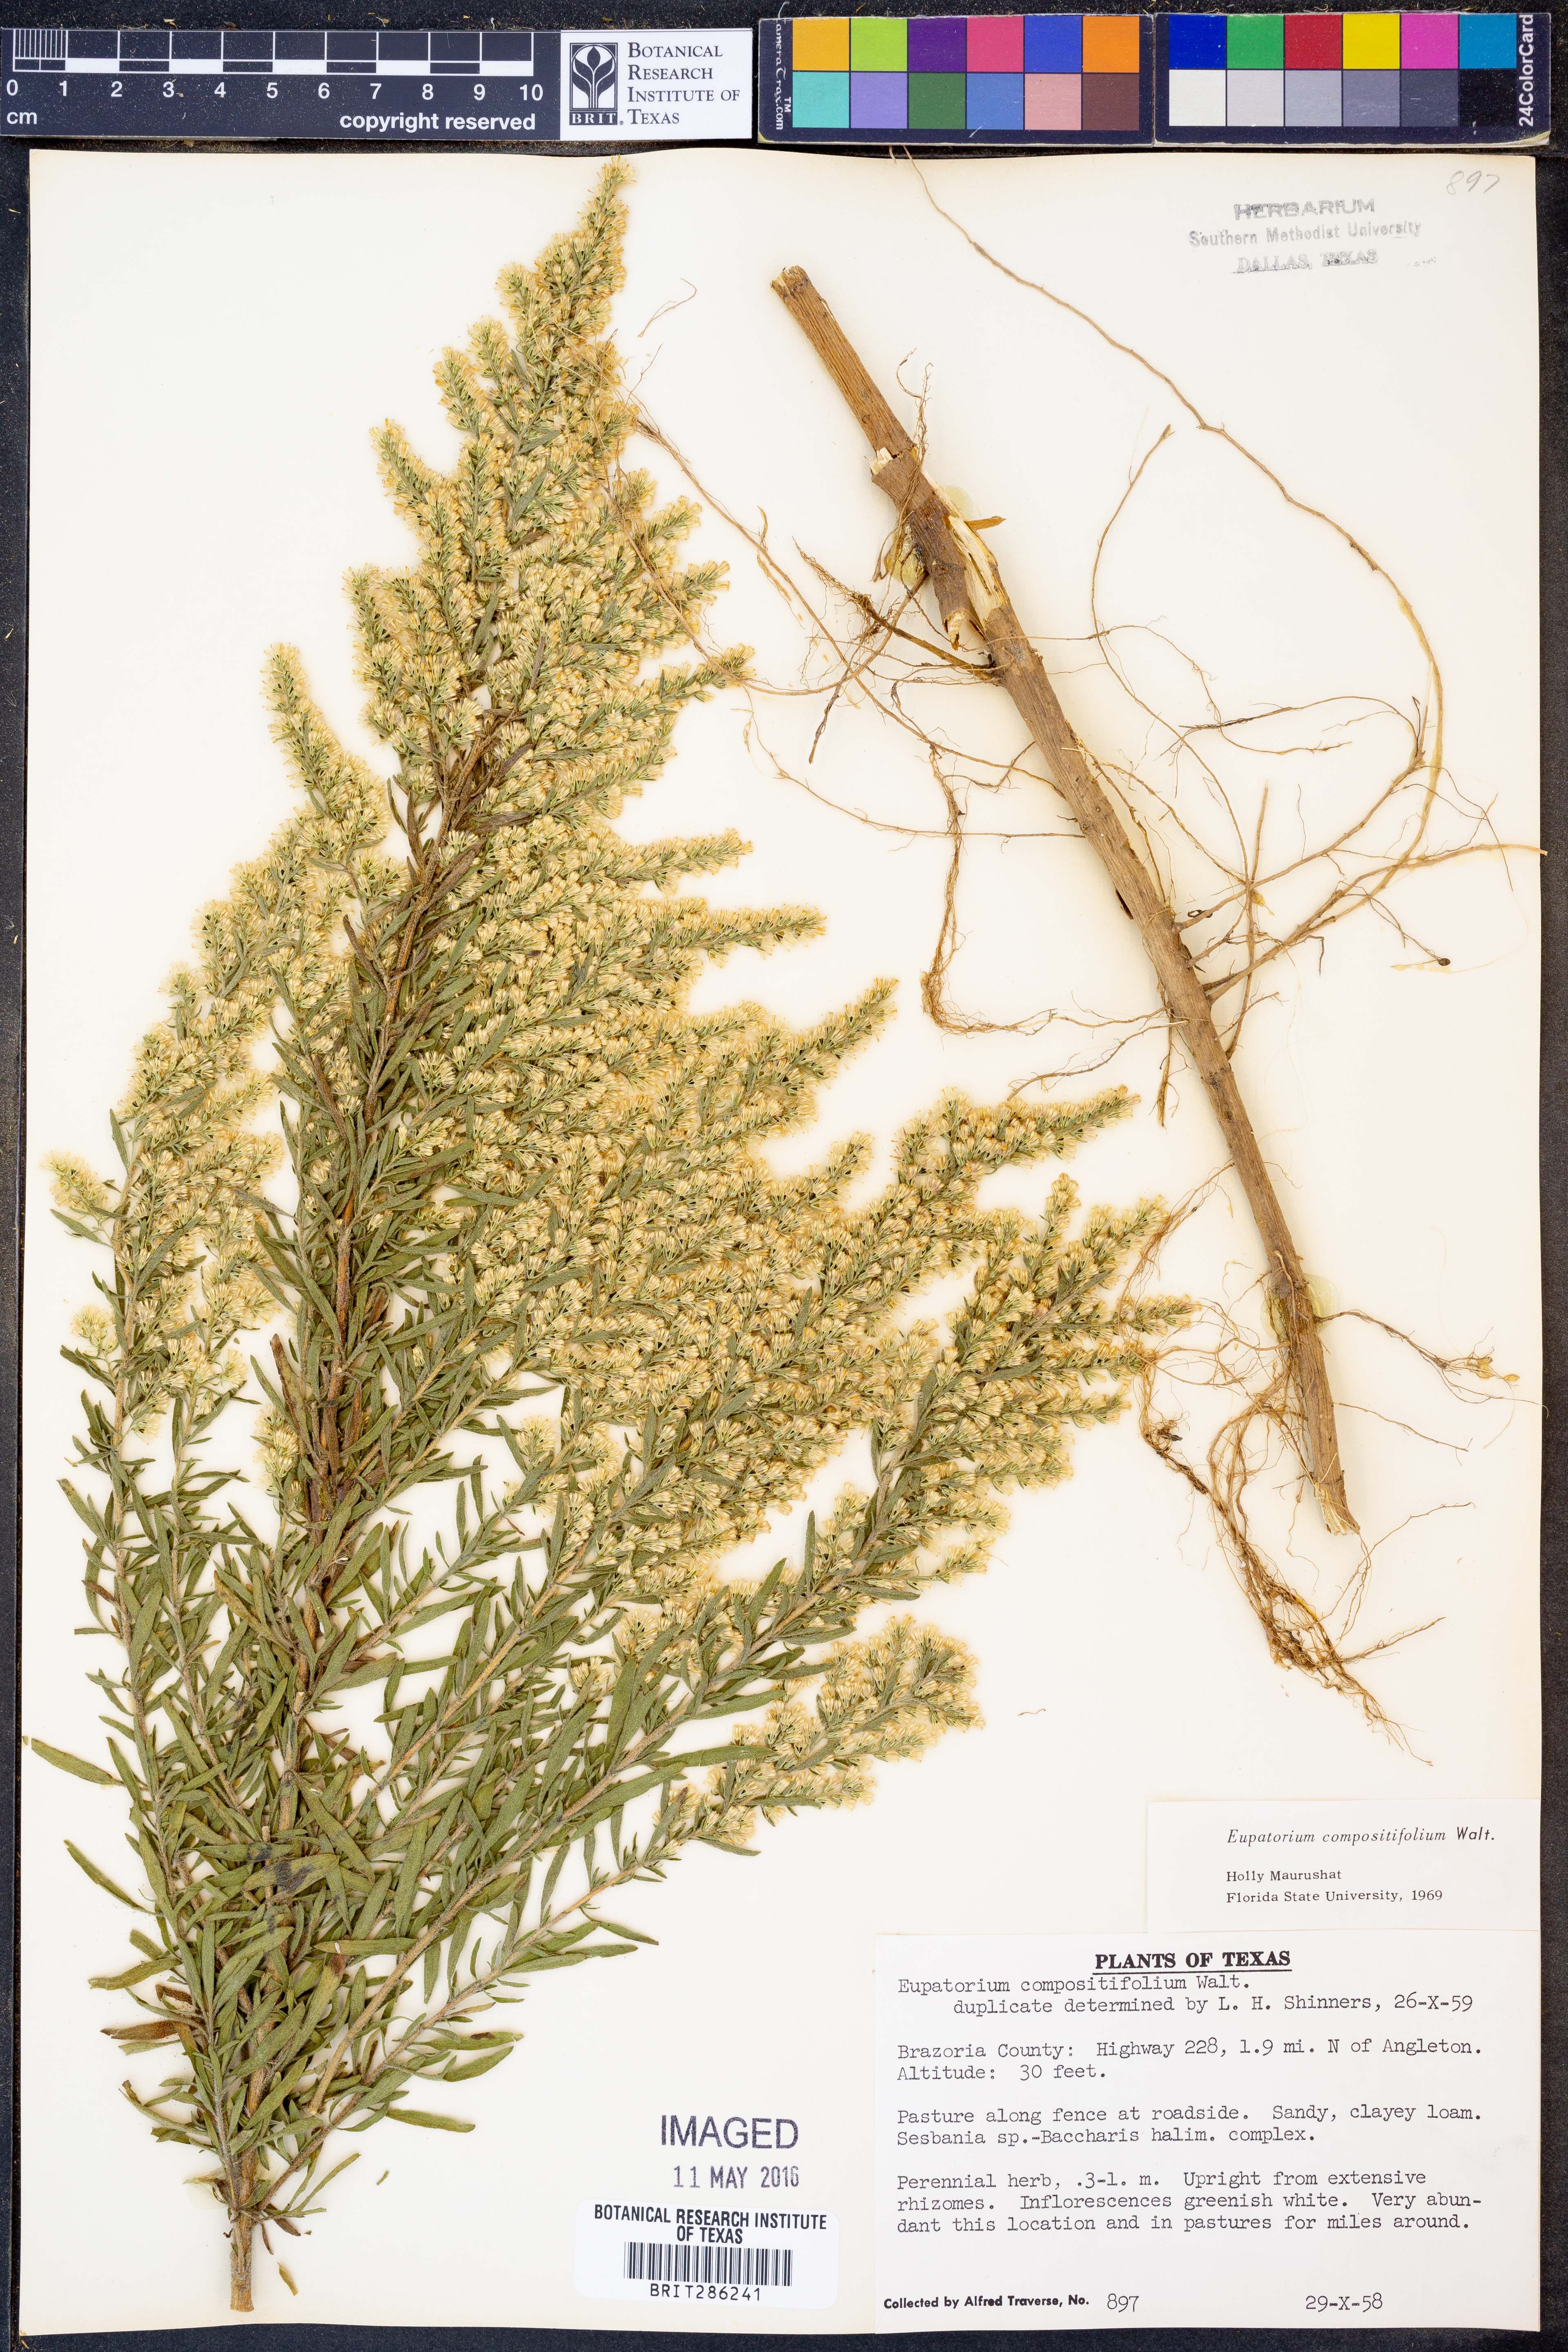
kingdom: Plantae
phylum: Tracheophyta
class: Magnoliopsida
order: Asterales
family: Asteraceae
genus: Eupatorium
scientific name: Eupatorium compositifolium
